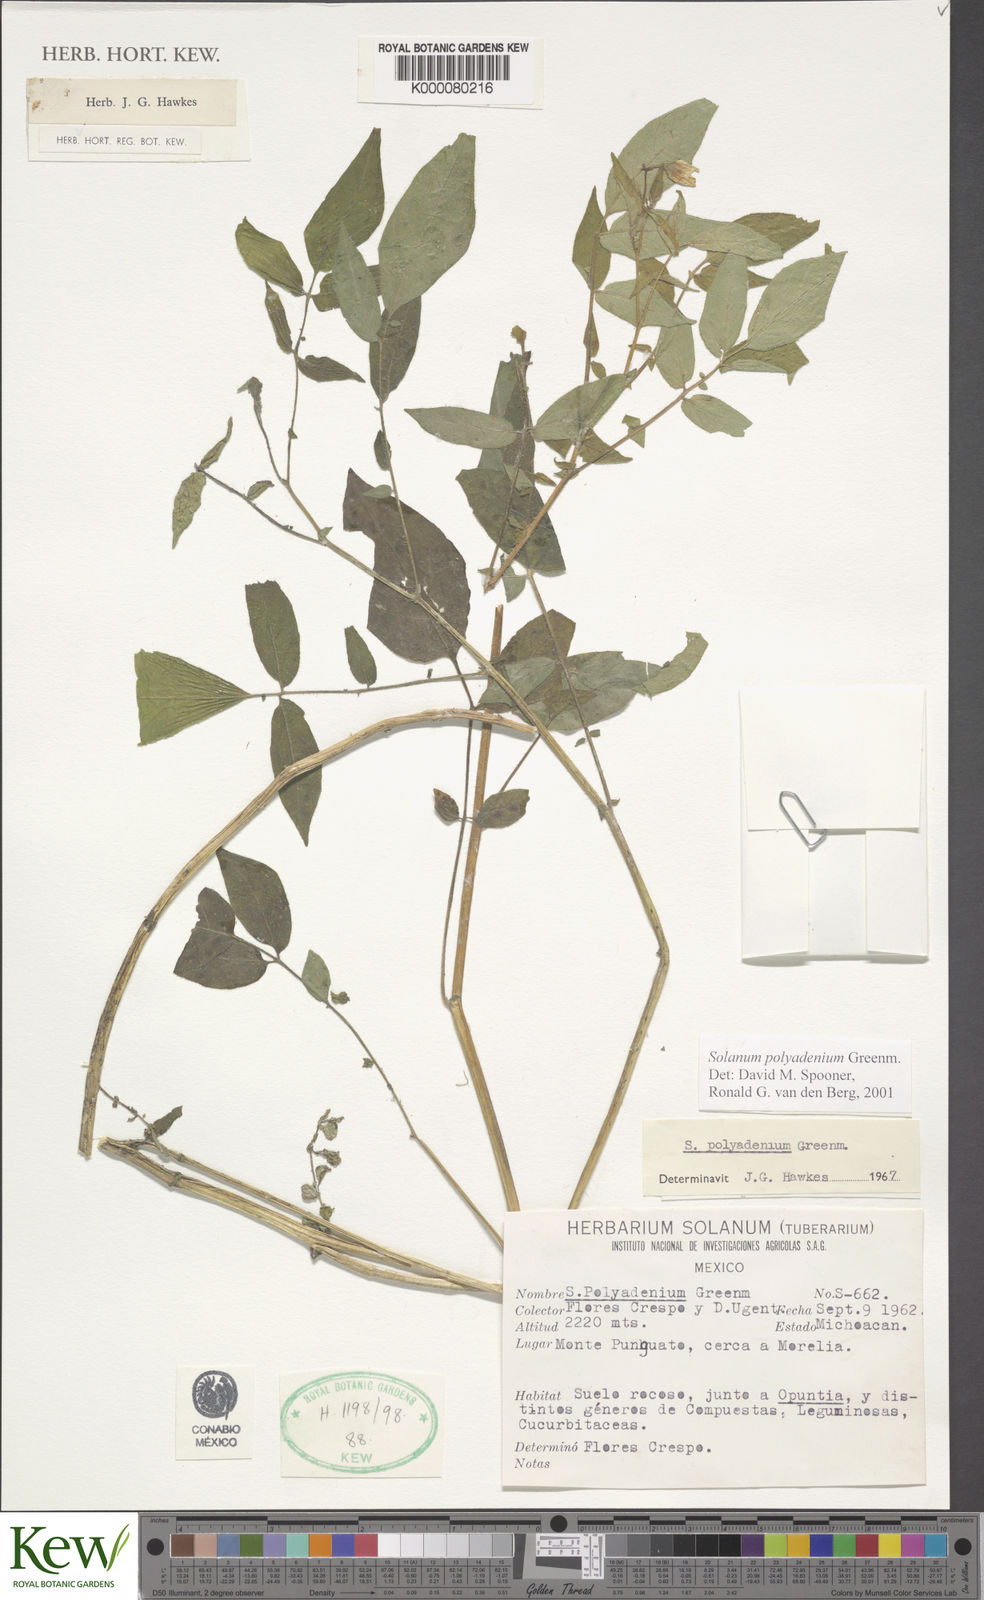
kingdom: Plantae
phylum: Tracheophyta
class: Magnoliopsida
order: Solanales
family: Solanaceae
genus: Solanum
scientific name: Solanum polyadenium
